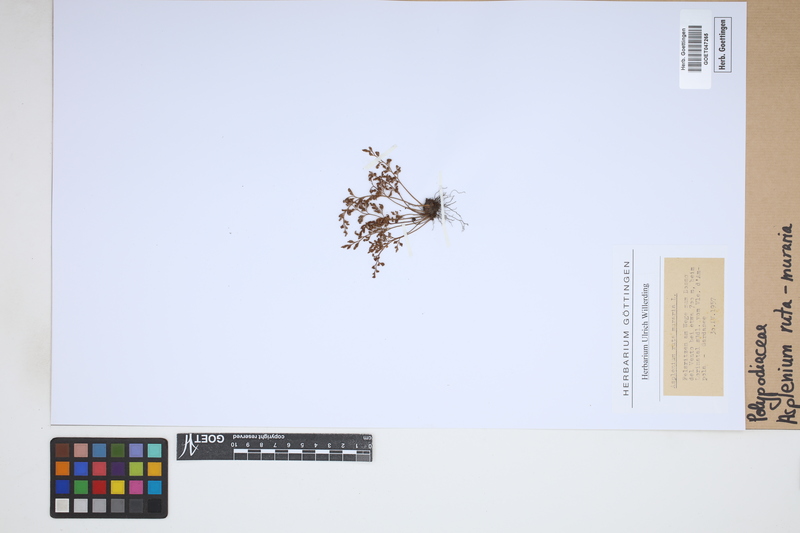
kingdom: Plantae
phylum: Tracheophyta
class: Polypodiopsida
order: Polypodiales
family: Aspleniaceae
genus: Asplenium
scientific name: Asplenium ruta-muraria
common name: Wall-rue
